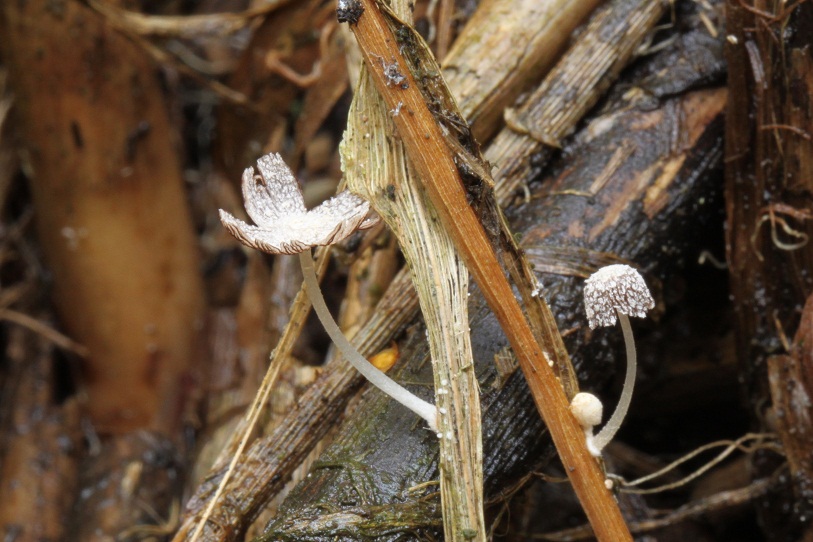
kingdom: Fungi
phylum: Basidiomycota
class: Agaricomycetes
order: Agaricales
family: Psathyrellaceae
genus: Coprinopsis
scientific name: Coprinopsis urticicola
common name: urte-blækhat
